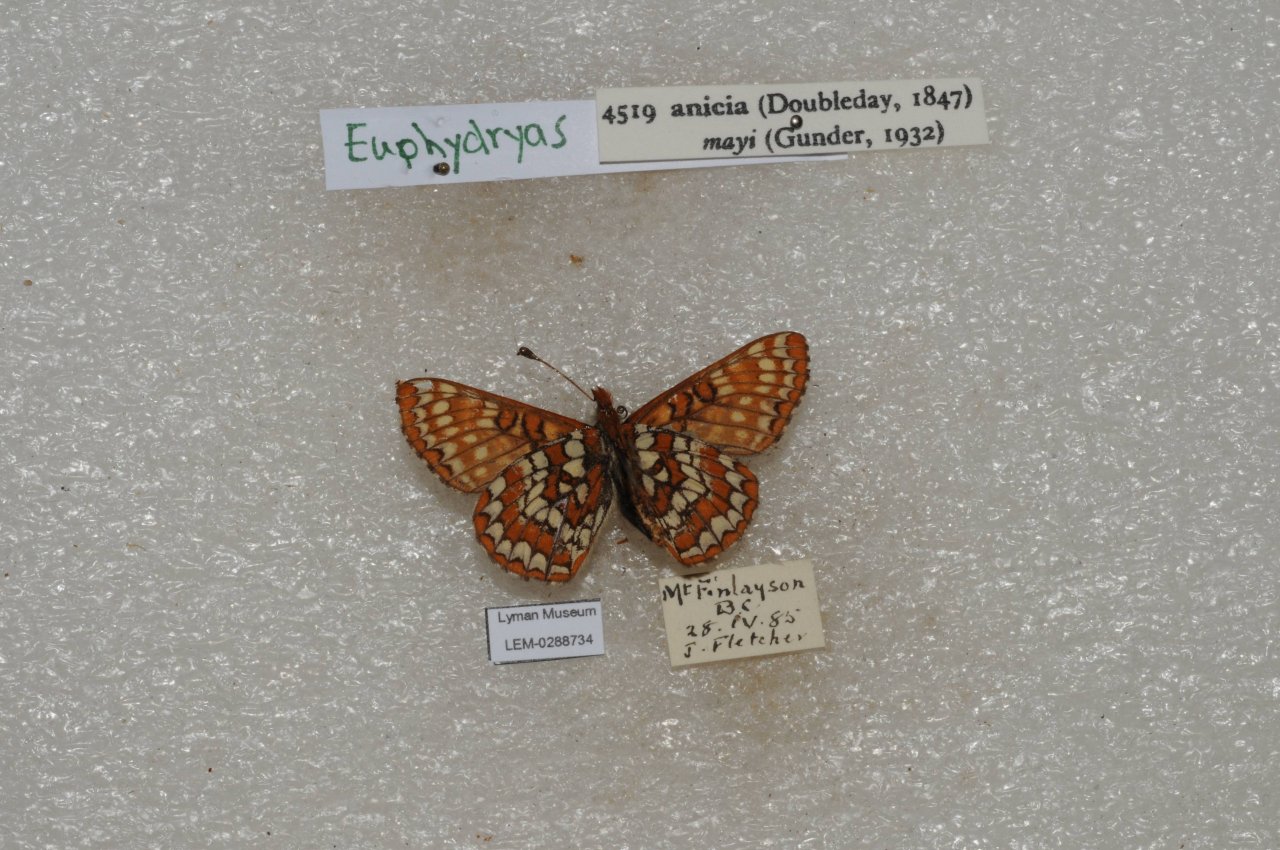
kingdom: Animalia
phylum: Arthropoda
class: Insecta
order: Lepidoptera
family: Nymphalidae
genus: Occidryas
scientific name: Occidryas anicia
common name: Anicia Checkerspot
